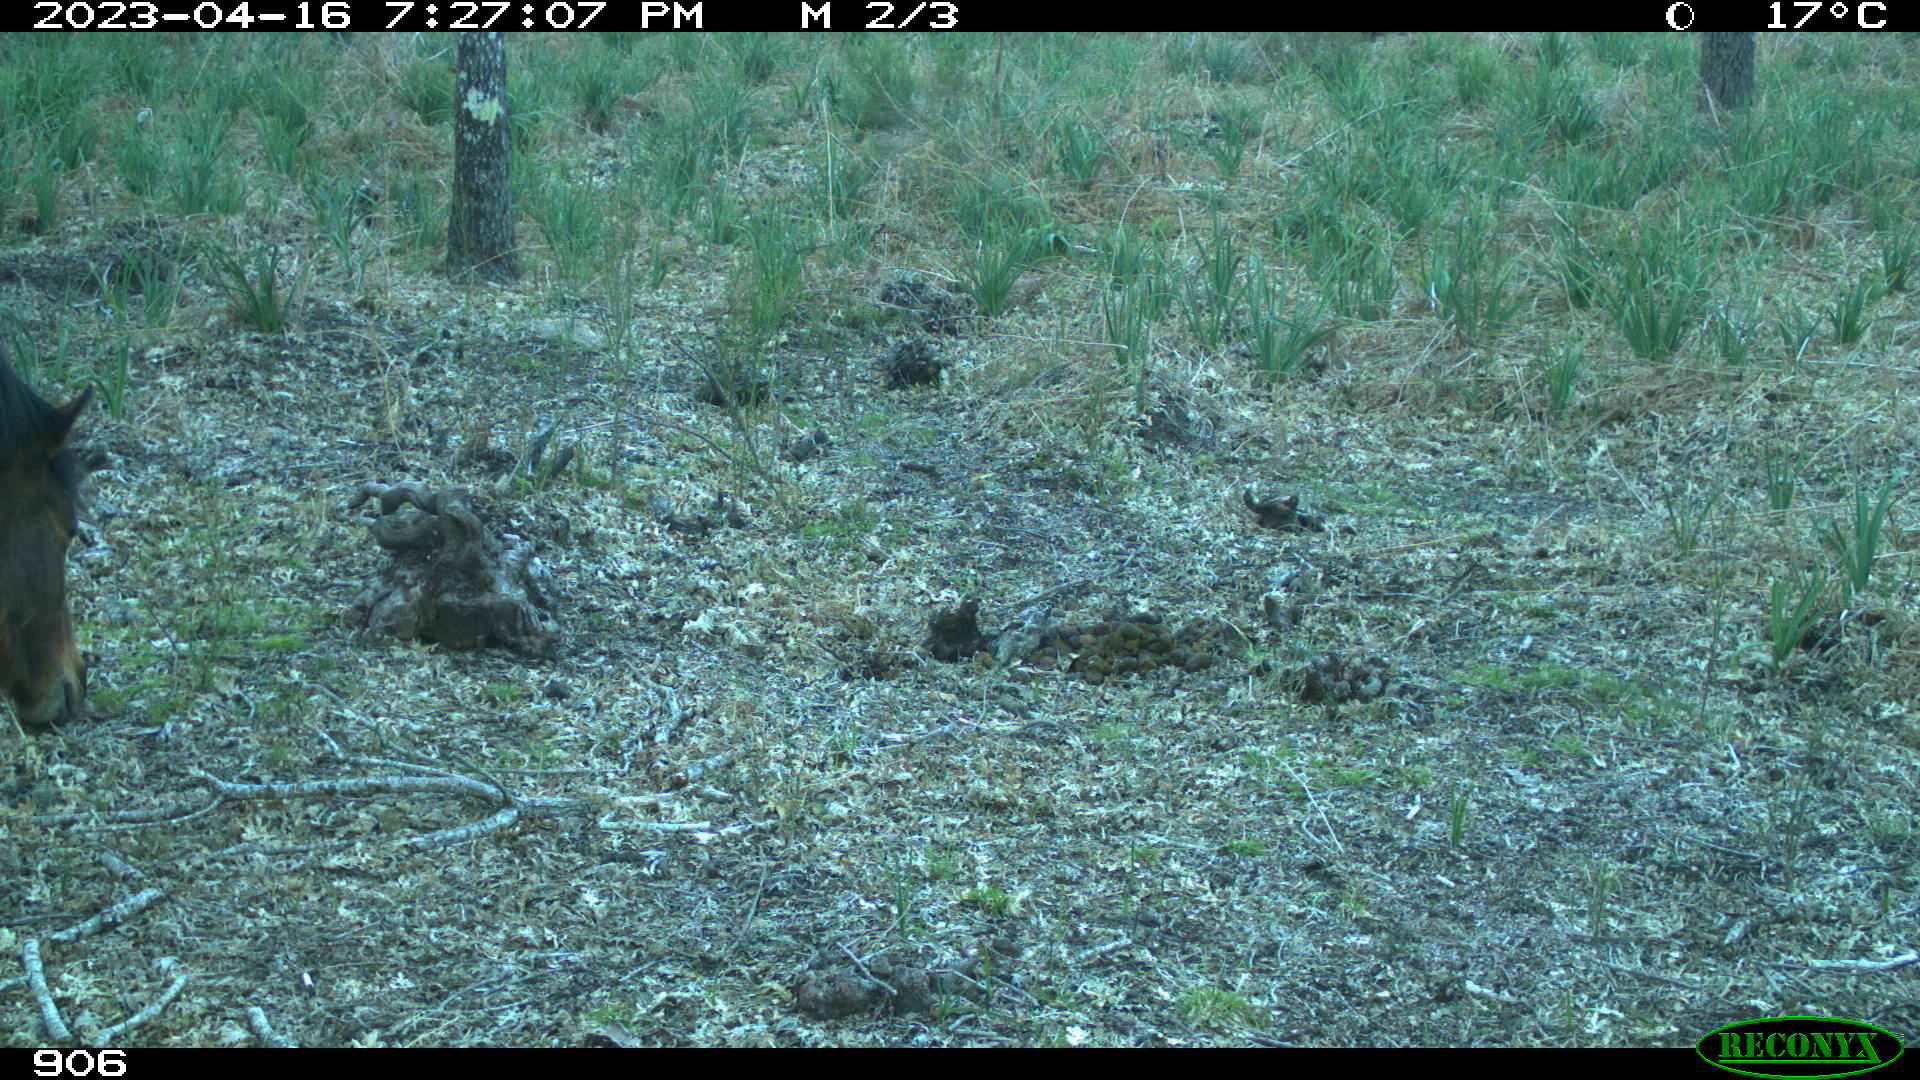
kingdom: Animalia
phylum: Chordata
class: Mammalia
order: Perissodactyla
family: Equidae
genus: Equus
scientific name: Equus caballus
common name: Horse
